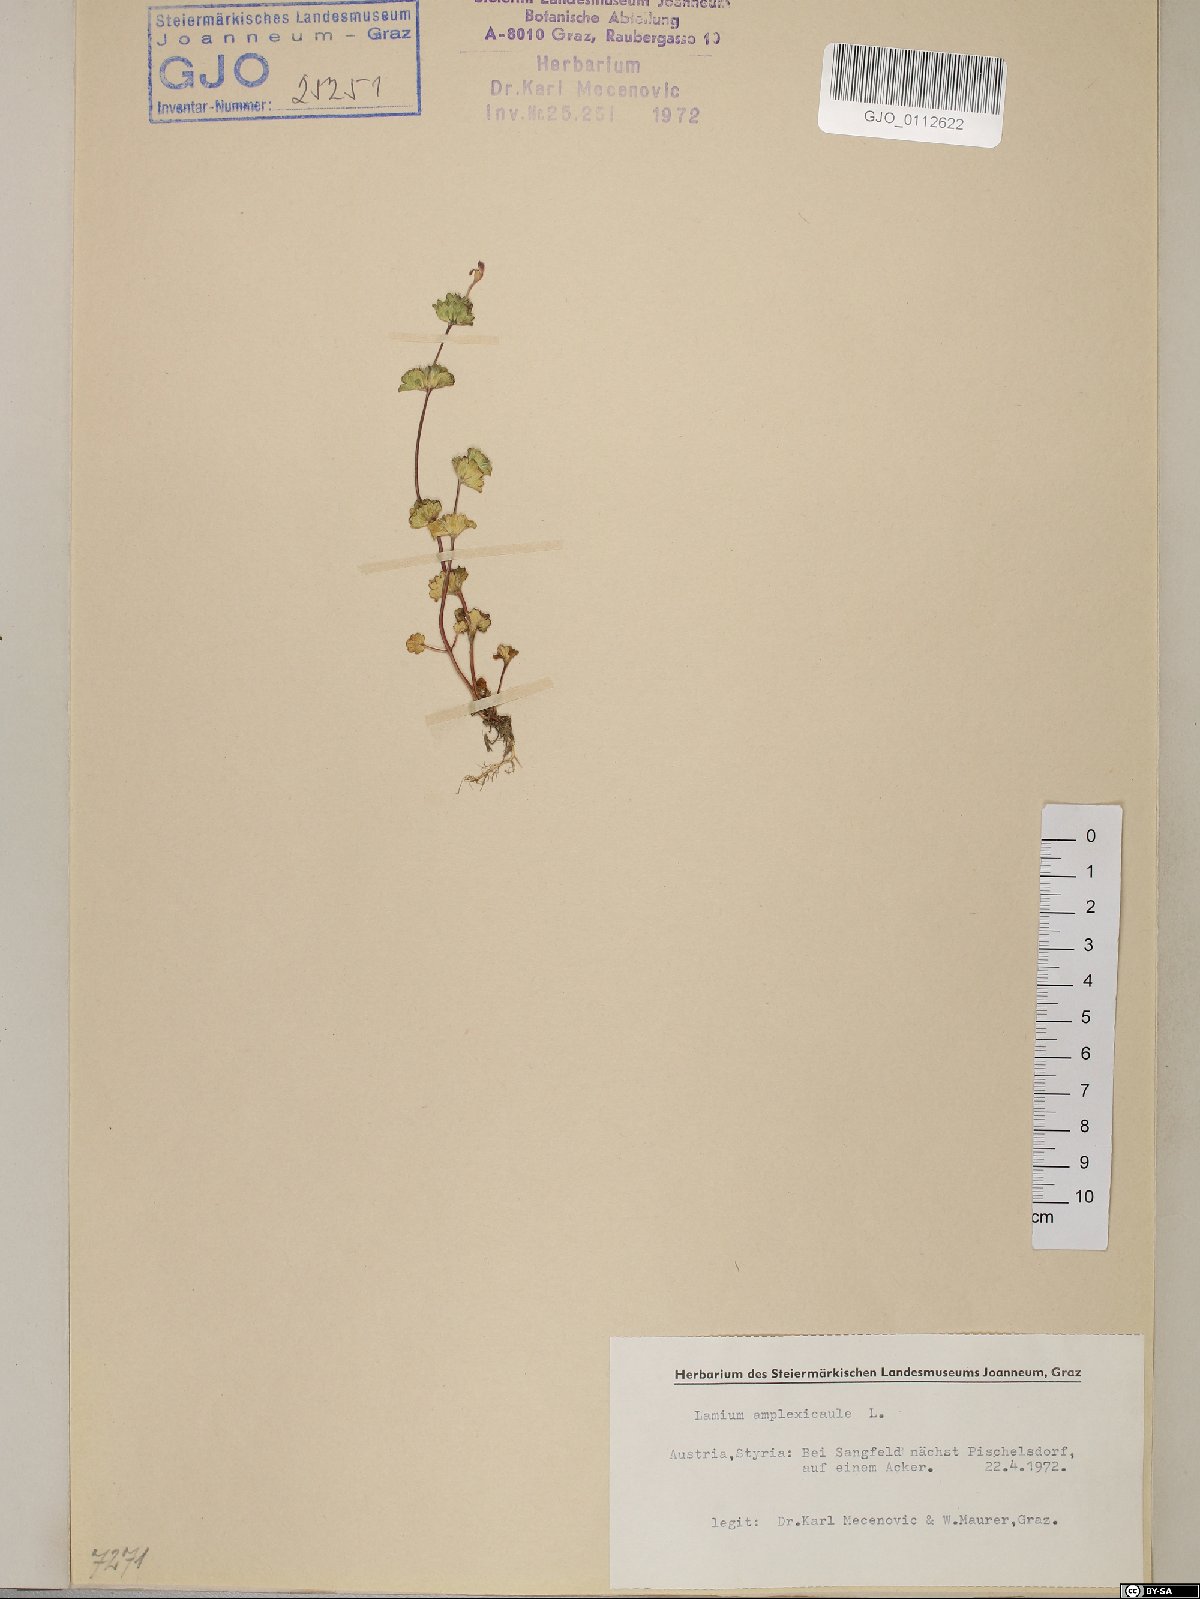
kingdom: Plantae
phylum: Tracheophyta
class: Magnoliopsida
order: Lamiales
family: Lamiaceae
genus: Lamium
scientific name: Lamium amplexicaule
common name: Henbit dead-nettle
